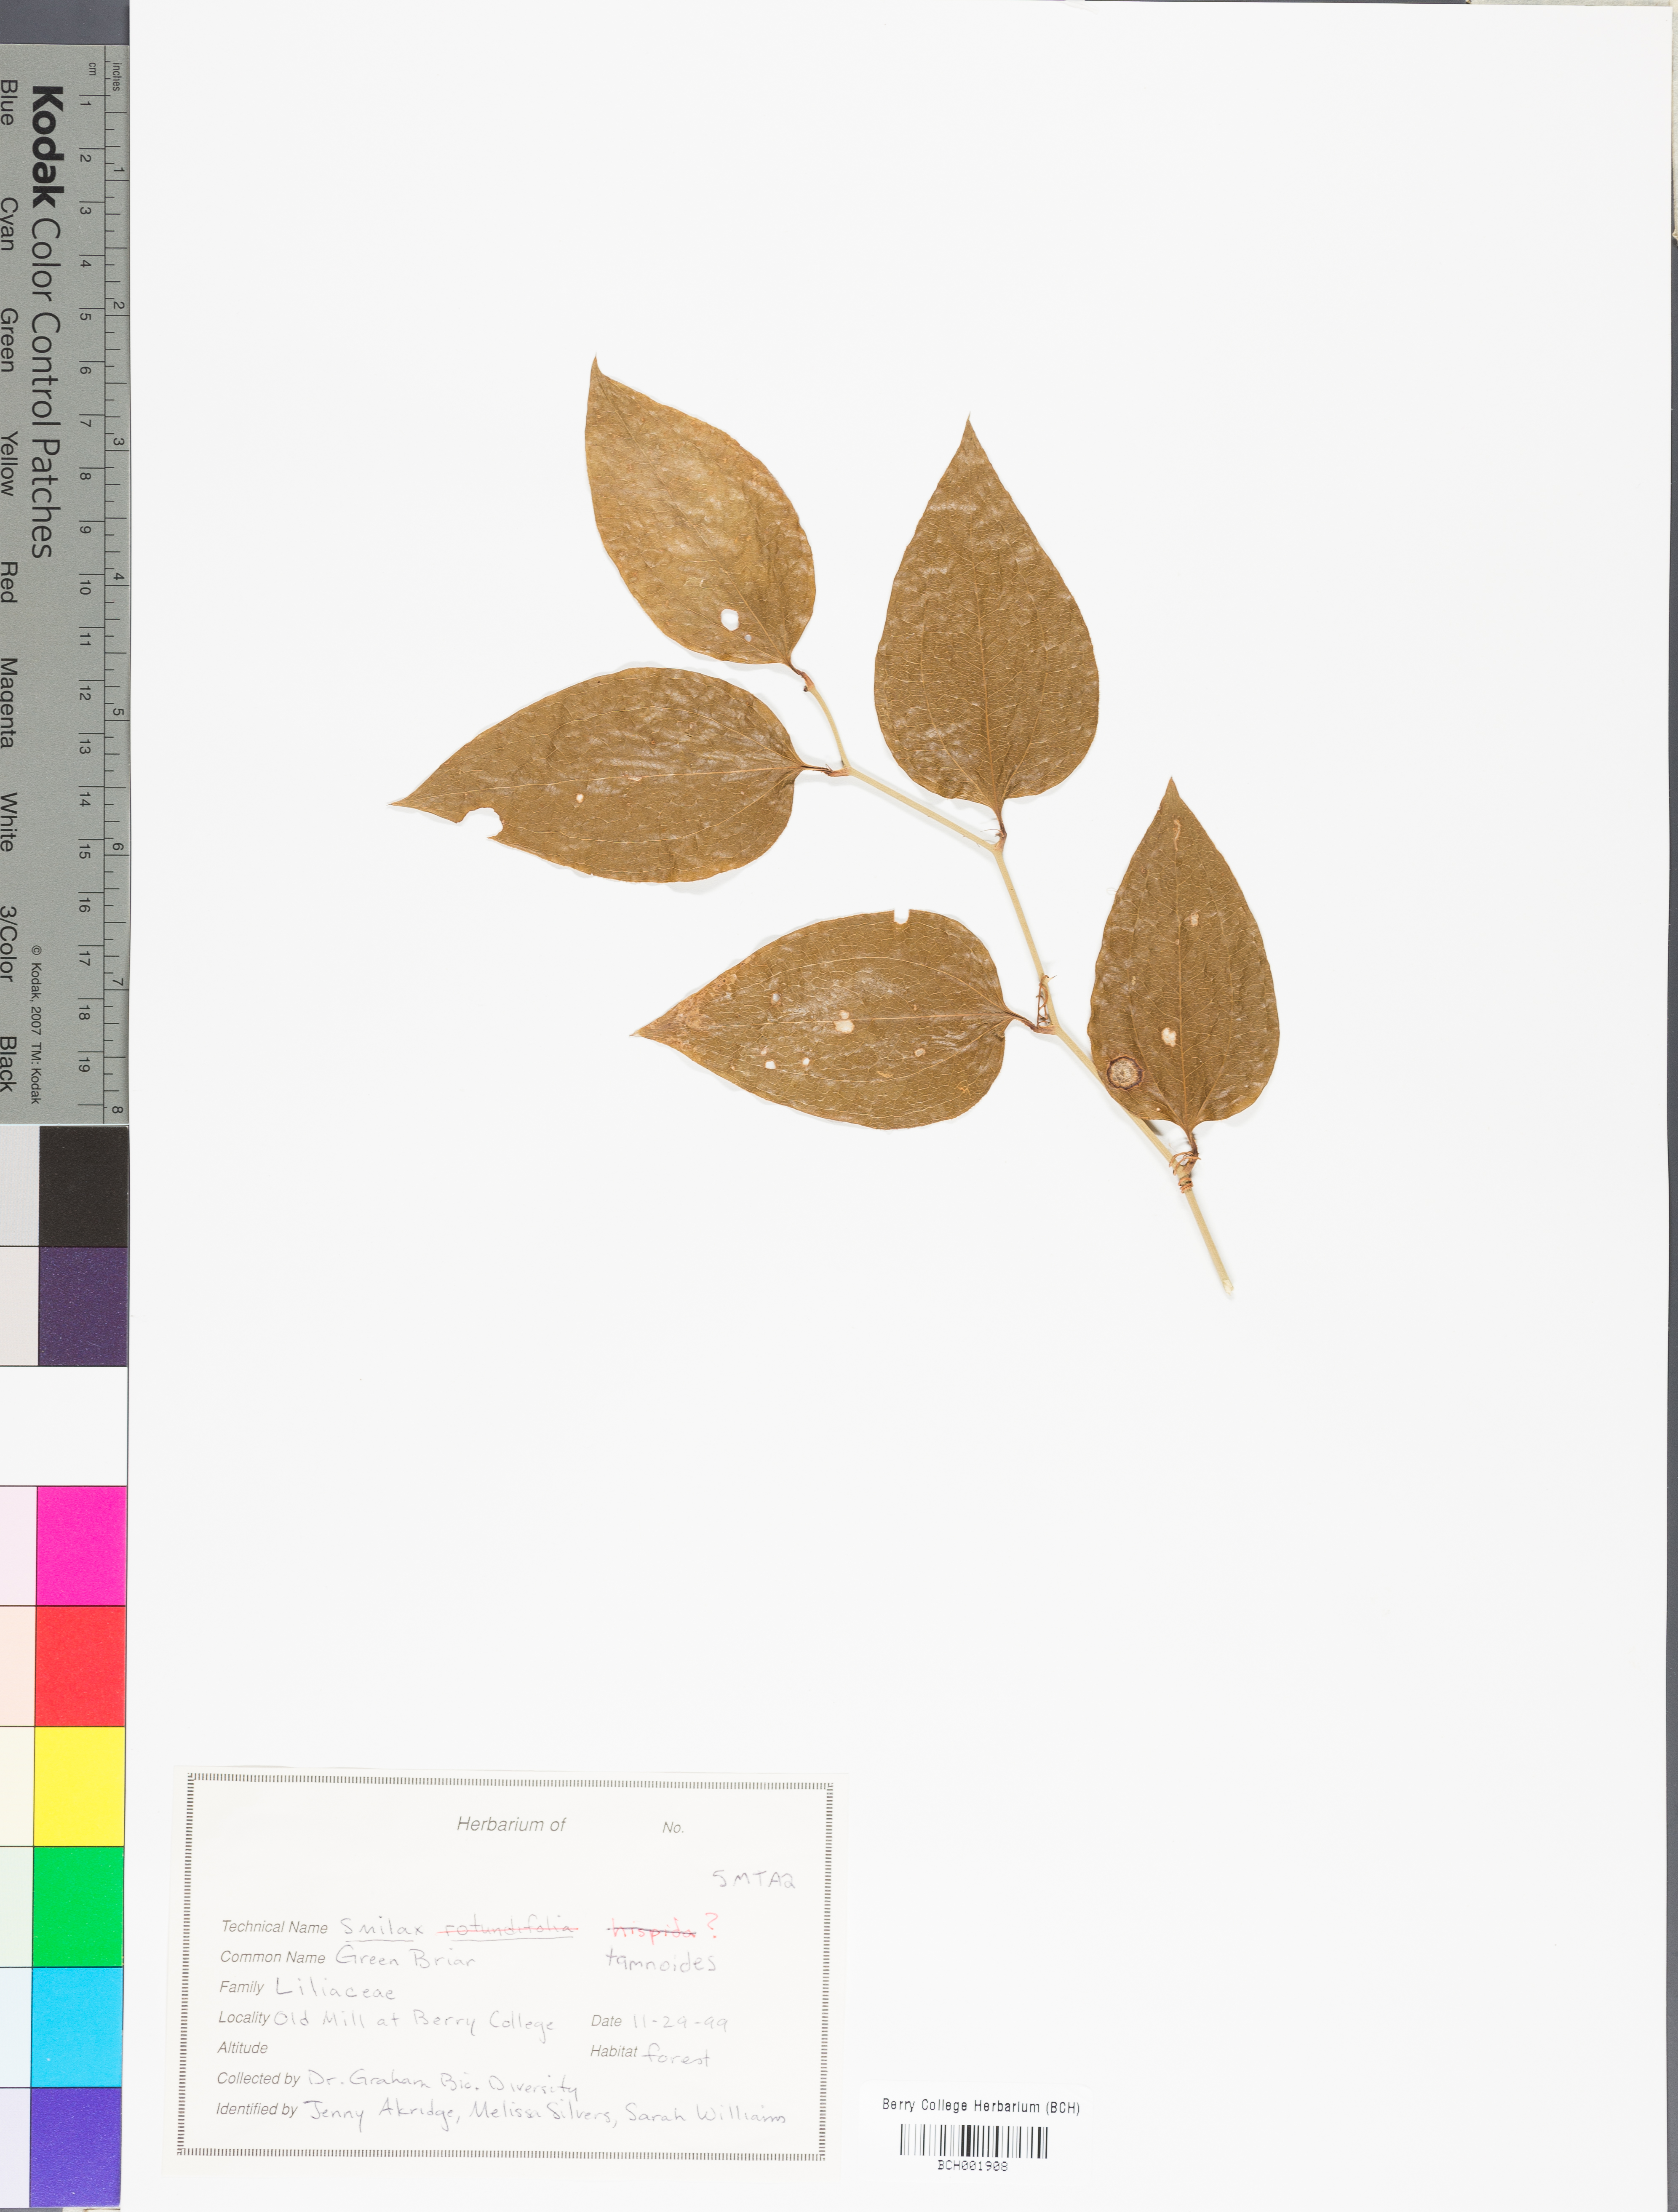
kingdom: Plantae
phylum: Tracheophyta
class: Liliopsida
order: Liliales
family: Smilacaceae
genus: Smilax
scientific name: Smilax tamnoides
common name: Hellfetter
